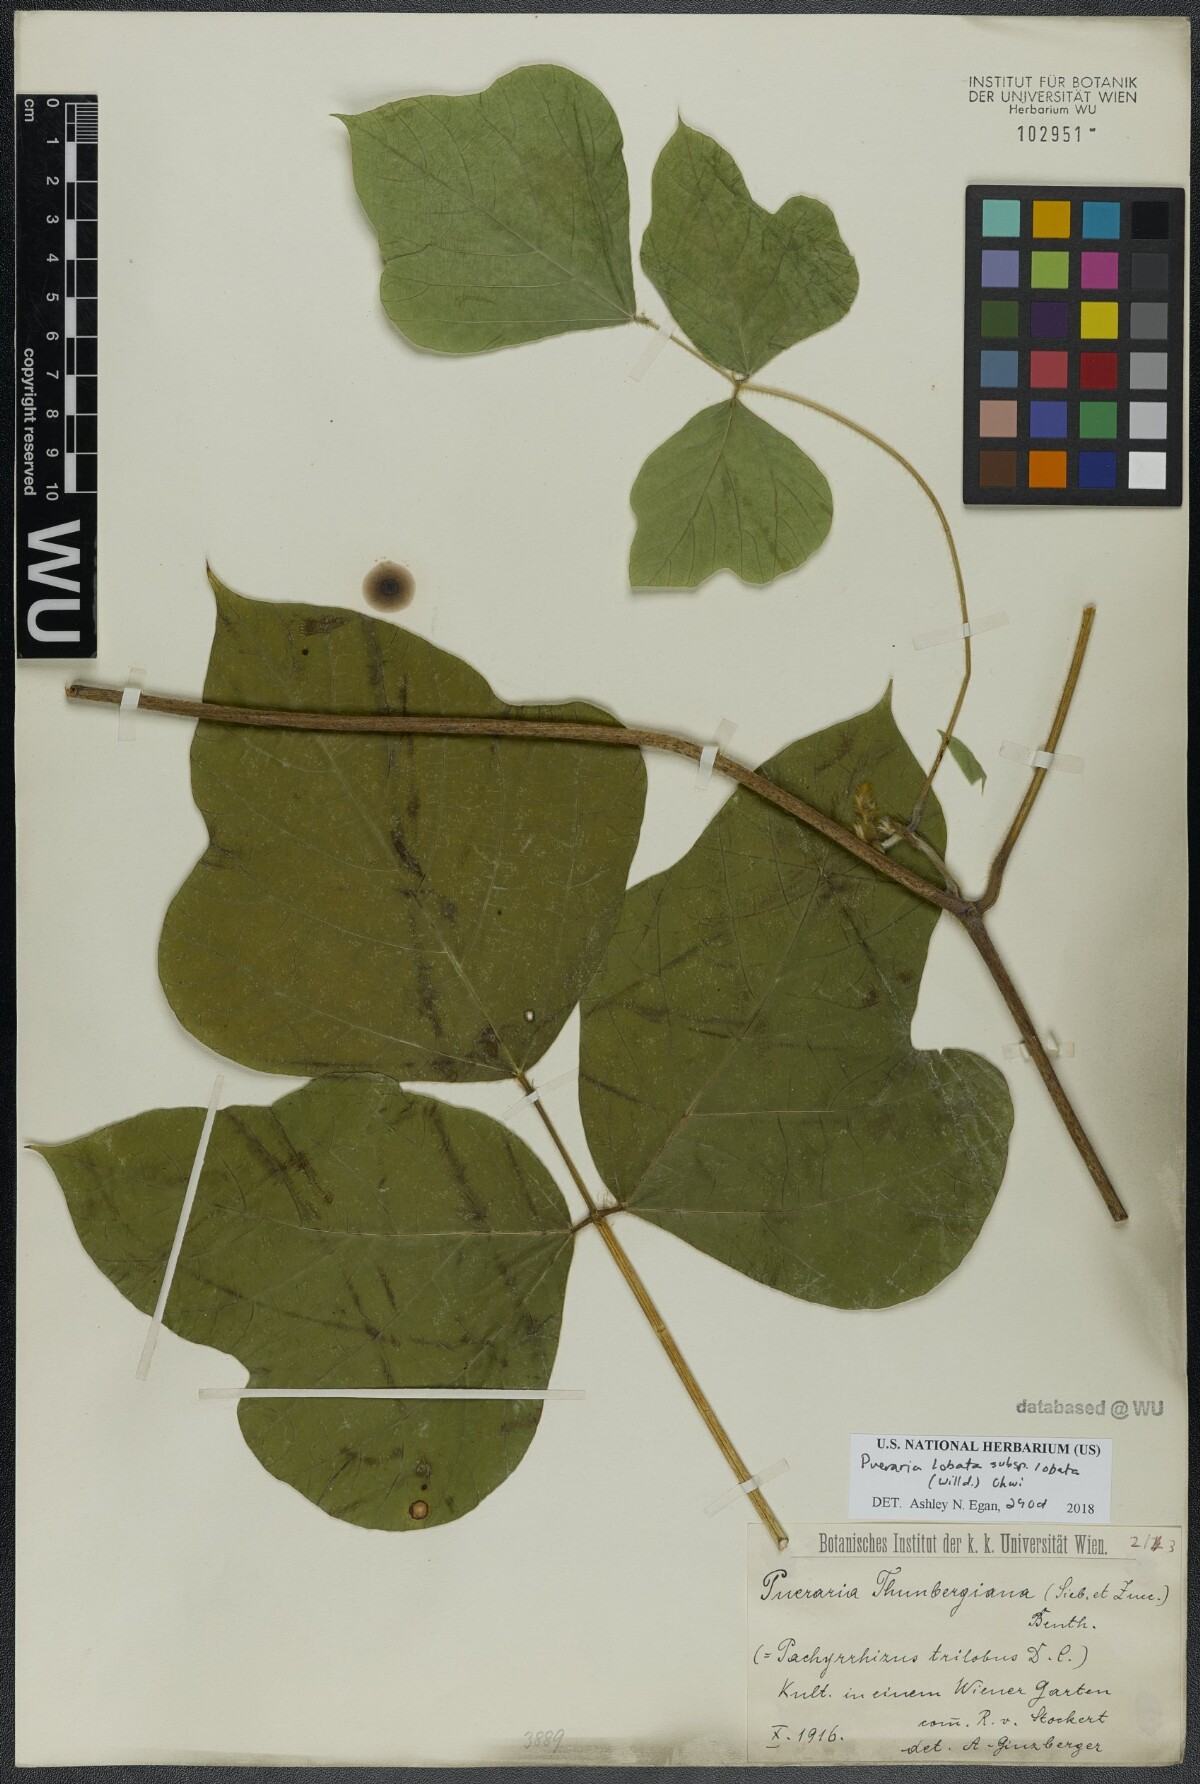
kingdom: Plantae
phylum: Tracheophyta
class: Magnoliopsida
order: Fabales
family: Fabaceae
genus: Pueraria
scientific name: Pueraria montana
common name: Kudzu
